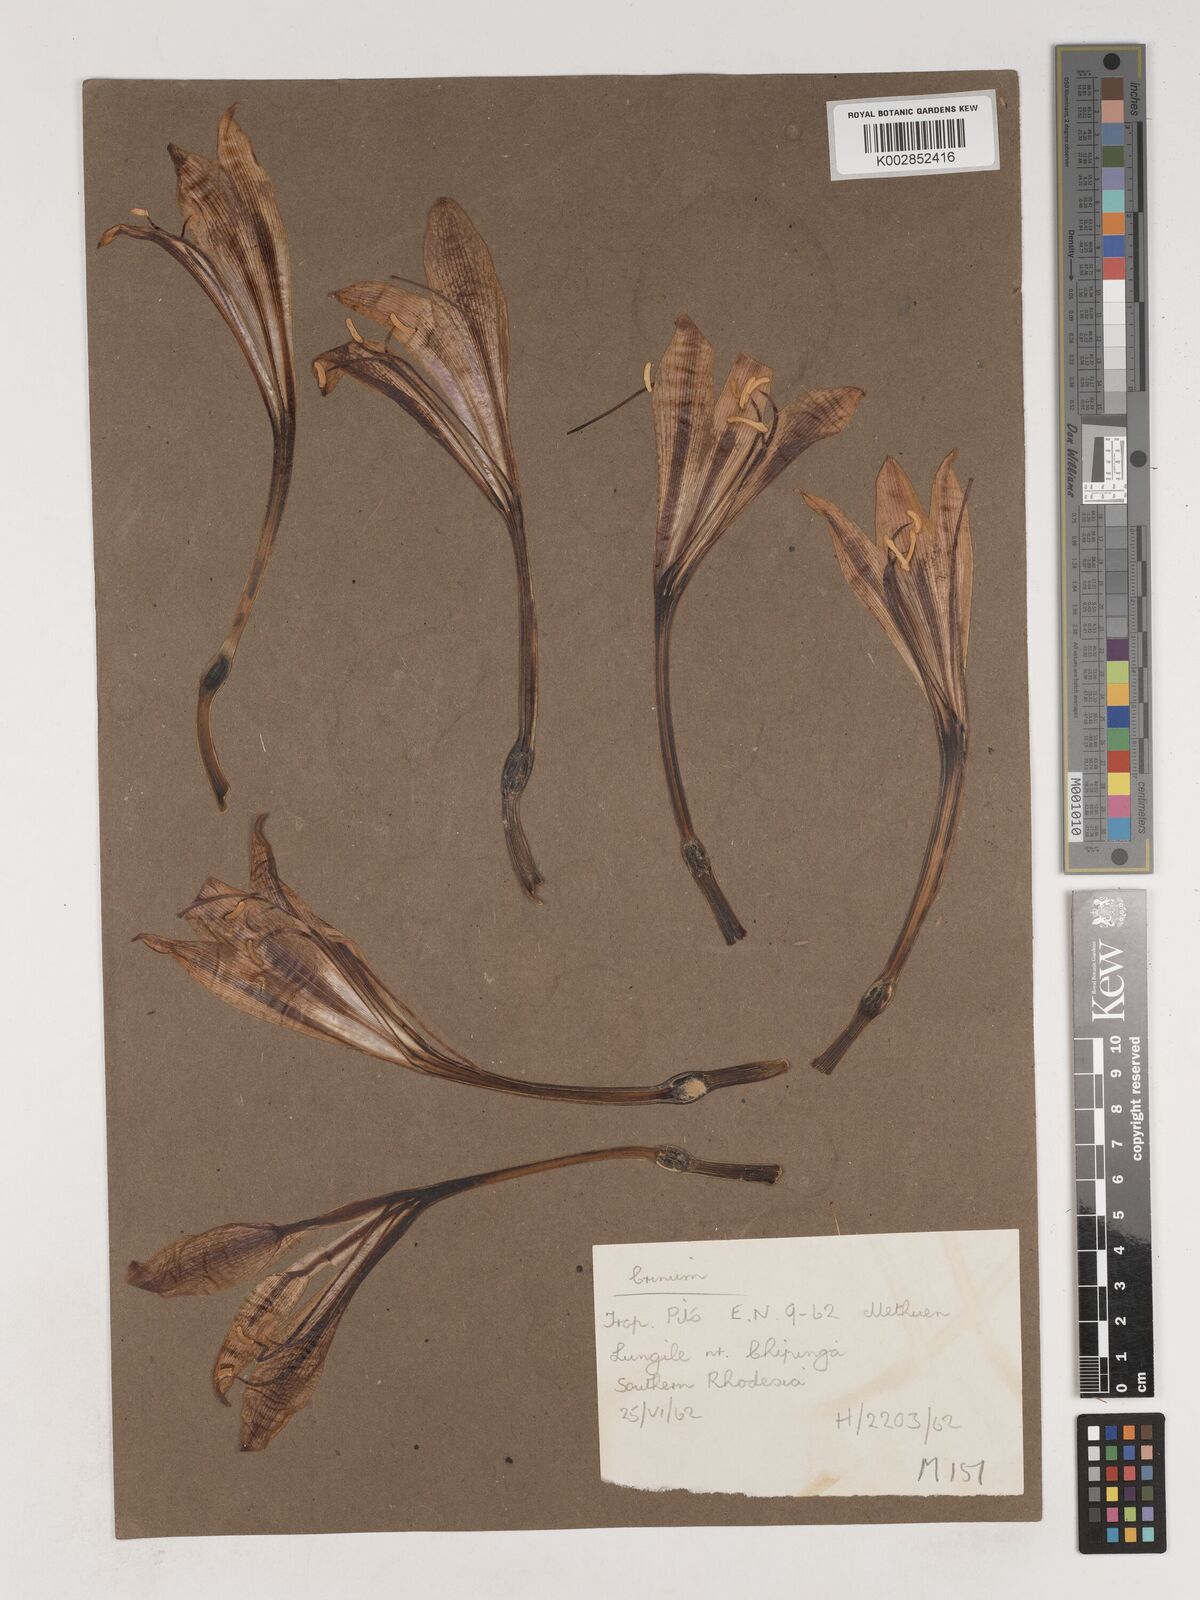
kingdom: Plantae
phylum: Tracheophyta
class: Liliopsida
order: Asparagales
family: Amaryllidaceae
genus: Crinum
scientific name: Crinum graminicola
